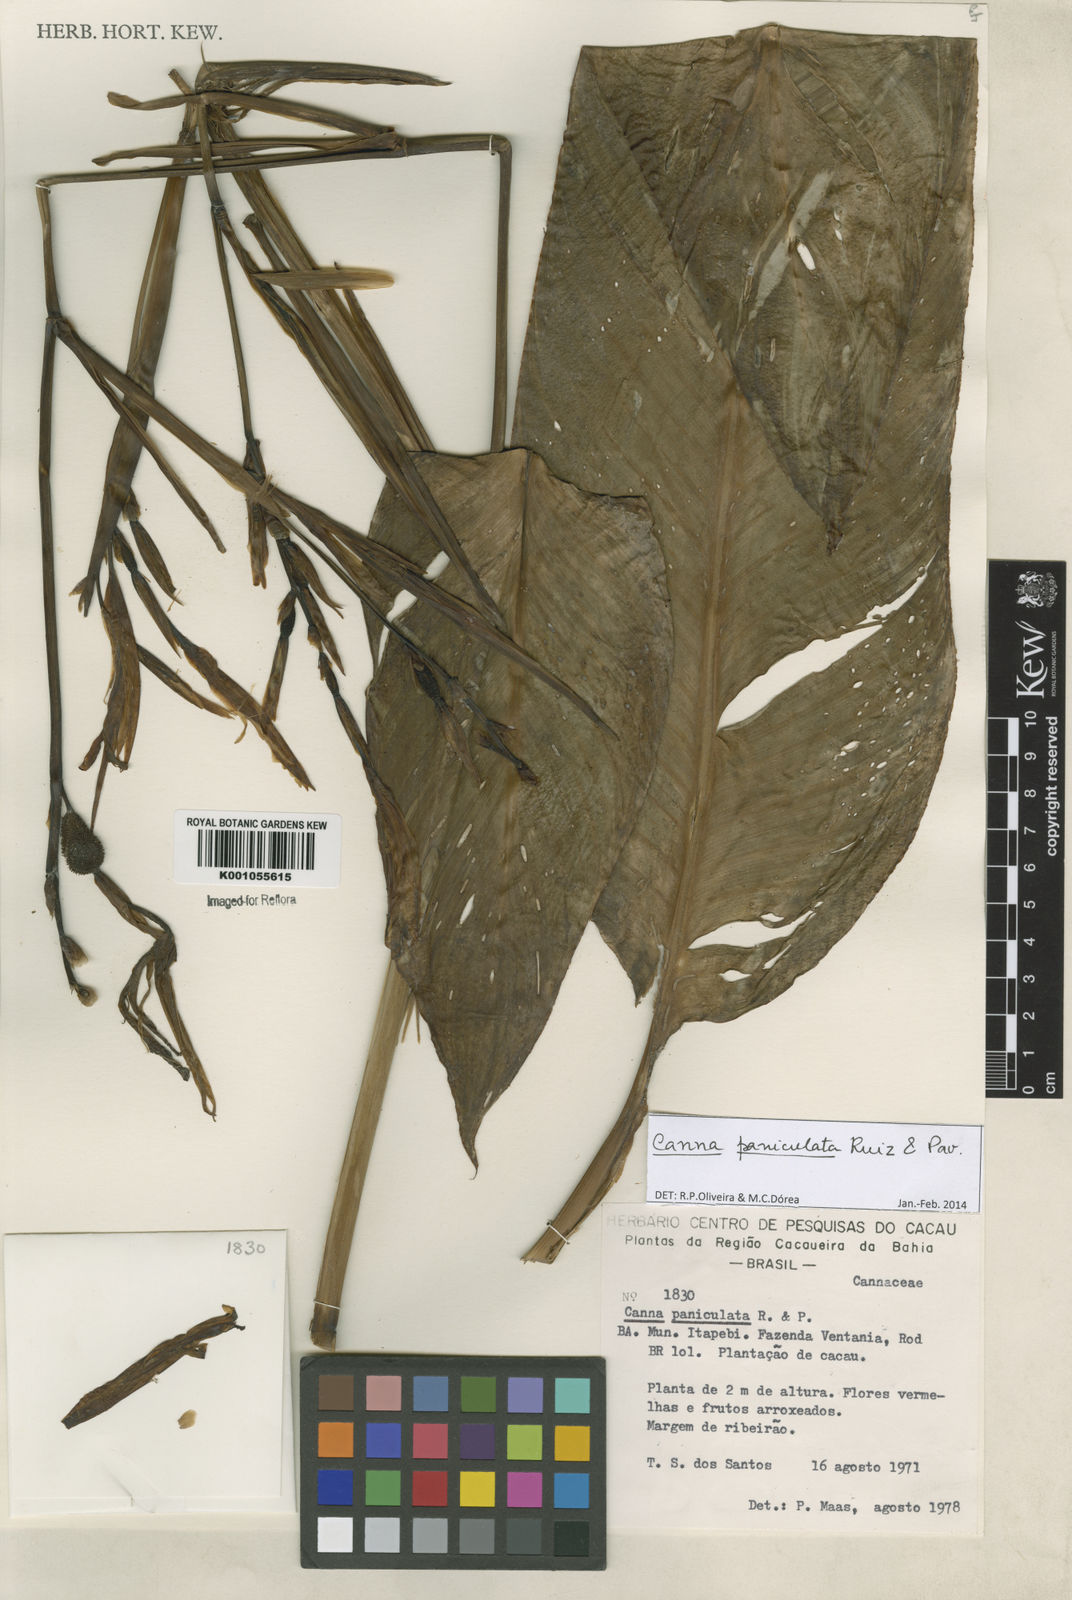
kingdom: Plantae
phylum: Tracheophyta
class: Liliopsida
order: Zingiberales
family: Cannaceae
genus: Canna
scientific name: Canna paniculata
